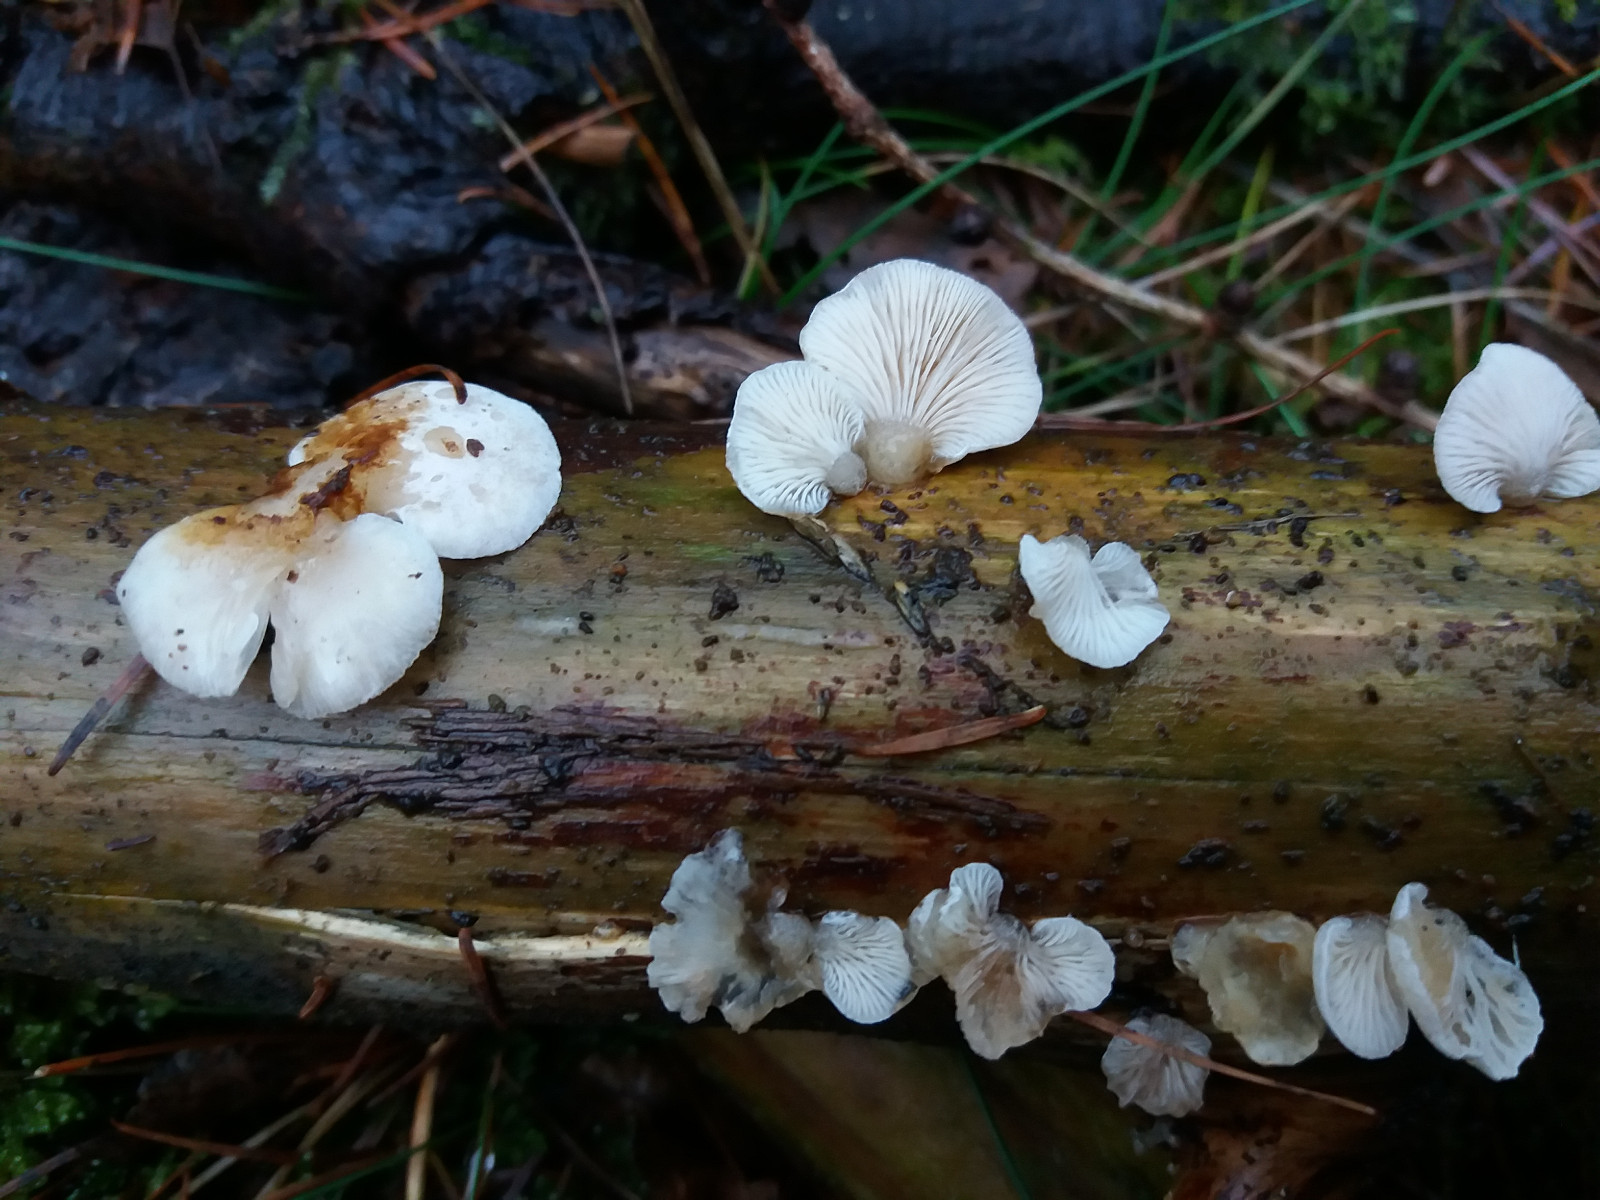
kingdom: Fungi
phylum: Basidiomycota
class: Agaricomycetes
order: Agaricales
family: Mycenaceae
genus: Panellus
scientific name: Panellus mitis
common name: mild epaulethat
